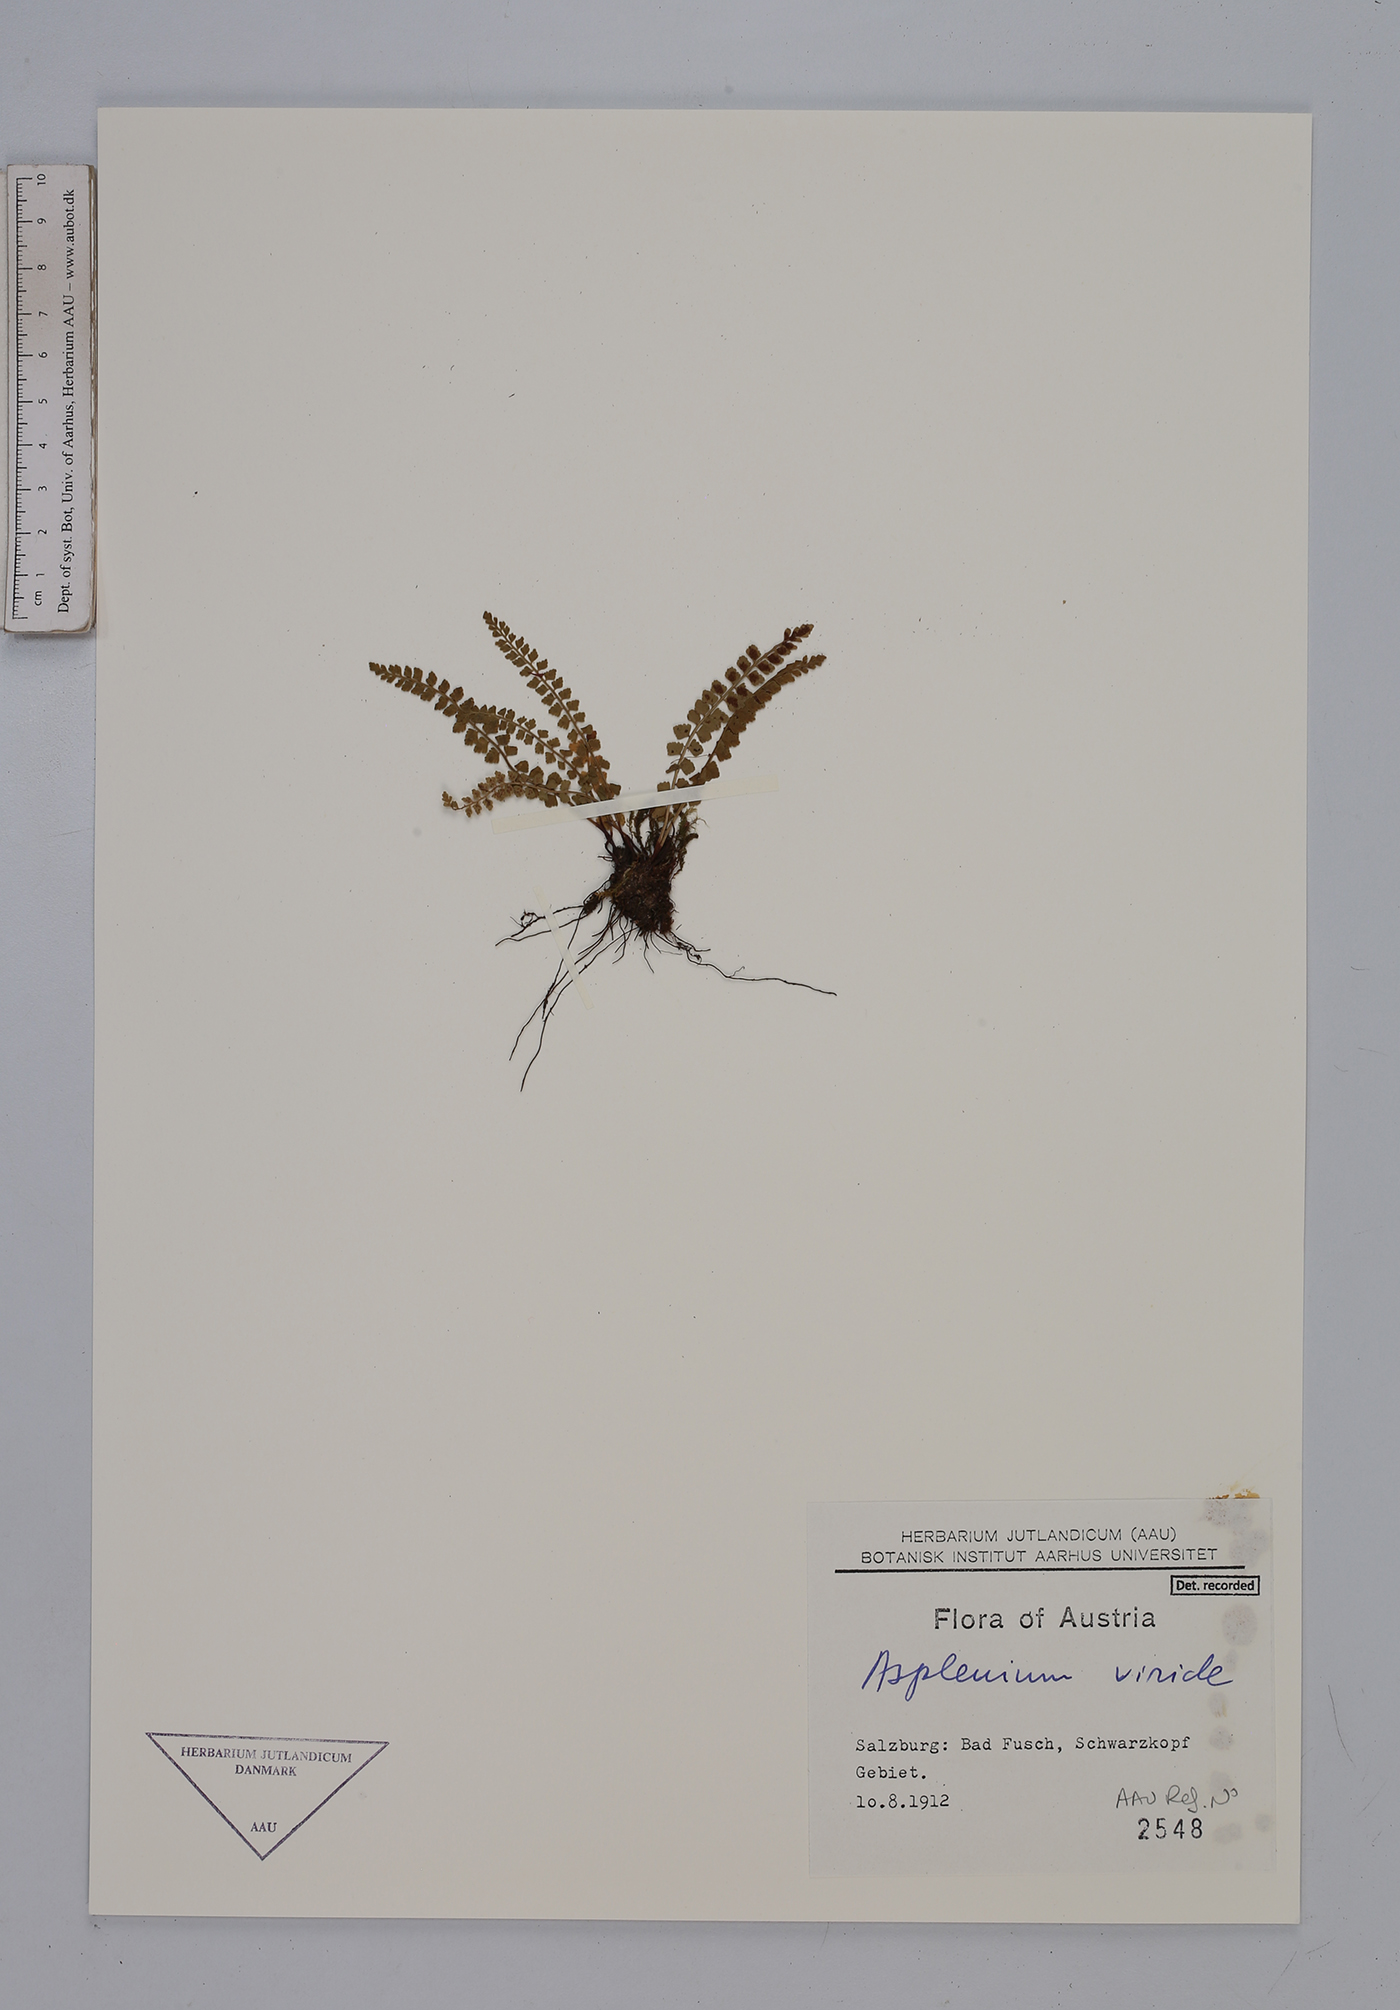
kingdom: Plantae
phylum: Tracheophyta
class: Polypodiopsida
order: Polypodiales
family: Aspleniaceae
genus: Asplenium
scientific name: Asplenium viride
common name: Green spleenwort
